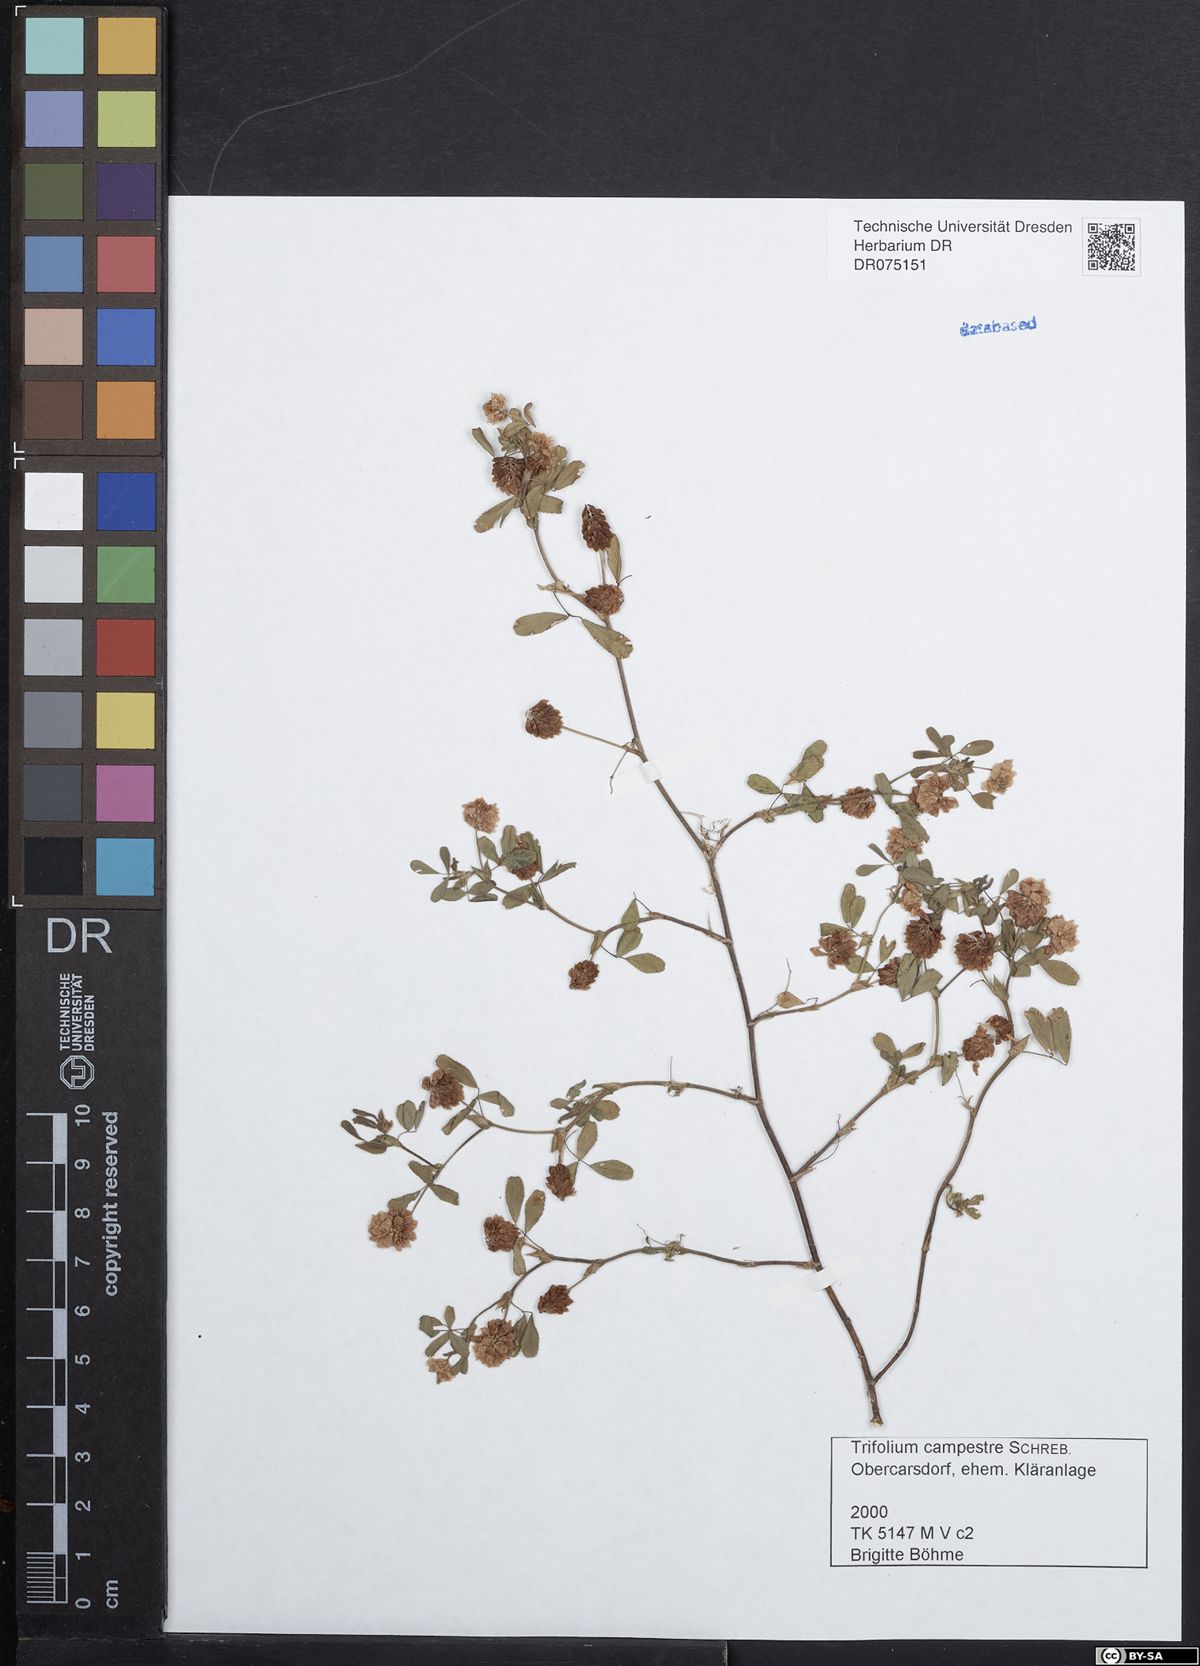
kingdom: Plantae
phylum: Tracheophyta
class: Magnoliopsida
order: Fabales
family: Fabaceae
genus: Trifolium
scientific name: Trifolium campestre
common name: Field clover
